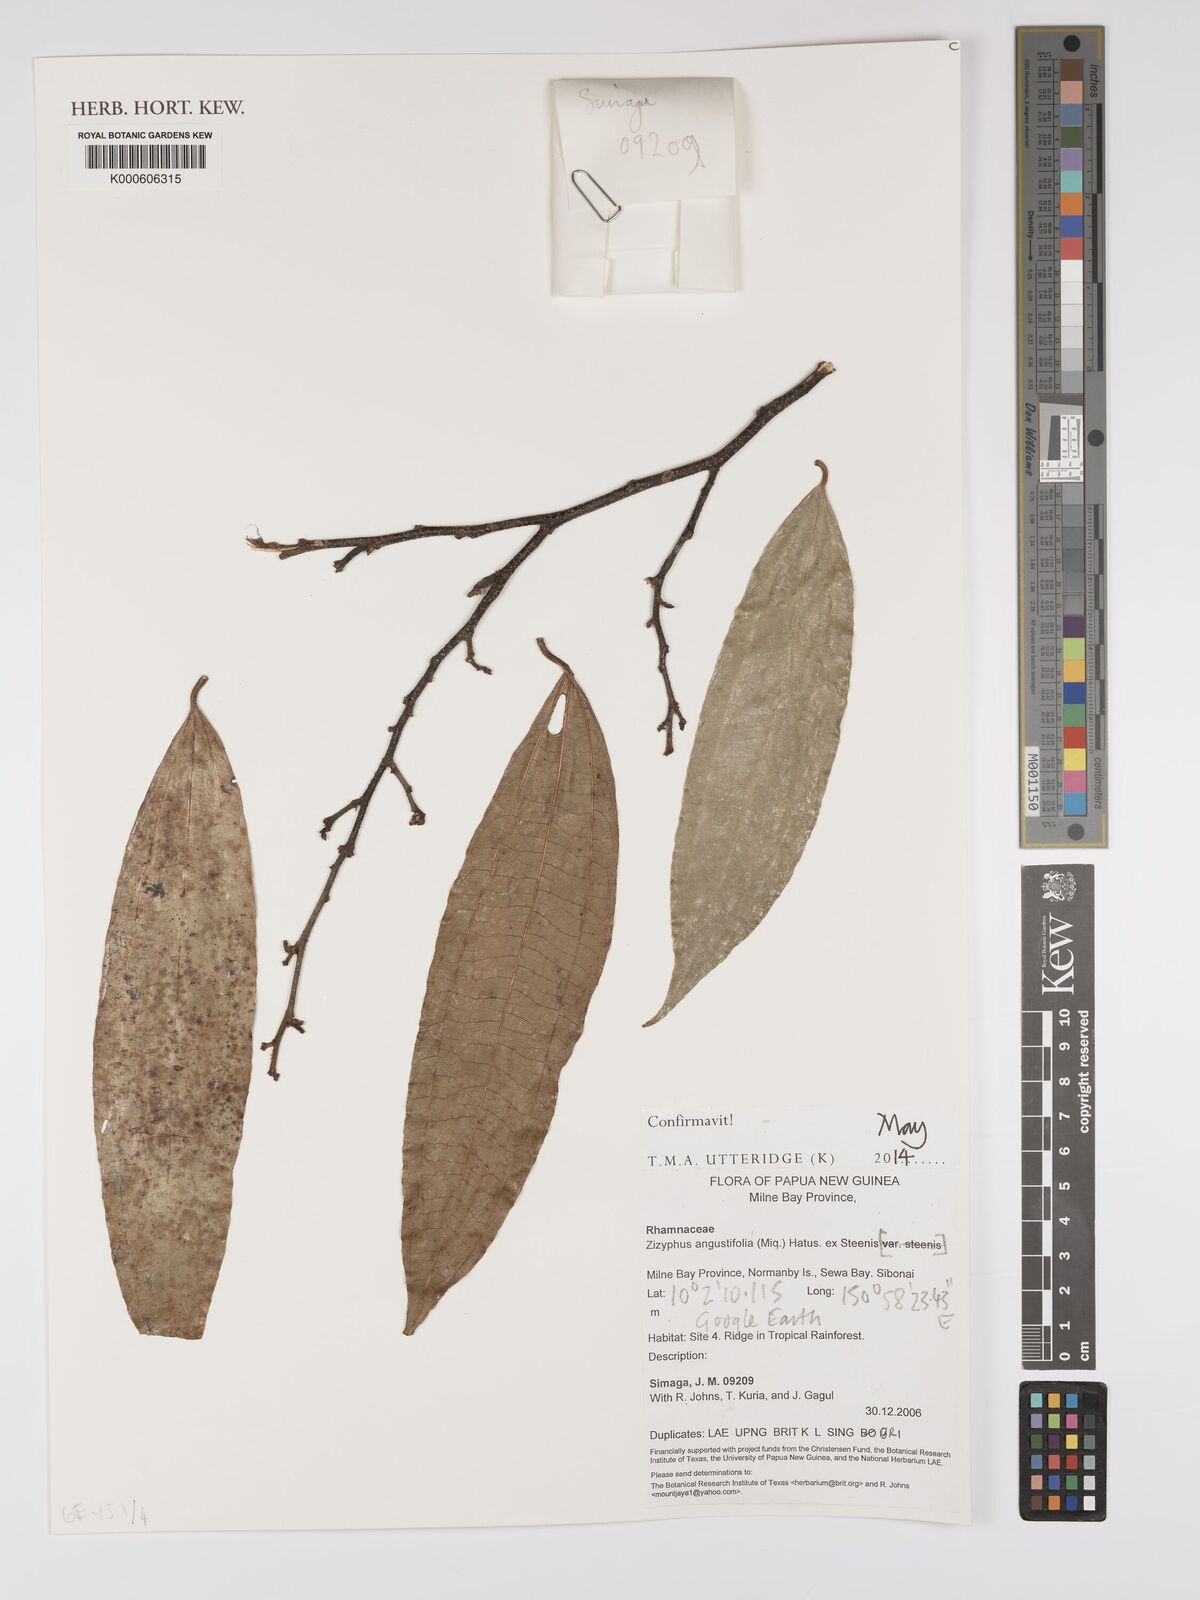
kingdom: Plantae
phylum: Tracheophyta
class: Magnoliopsida
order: Rosales
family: Rhamnaceae
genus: Ziziphus
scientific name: Ziziphus angustifolia
